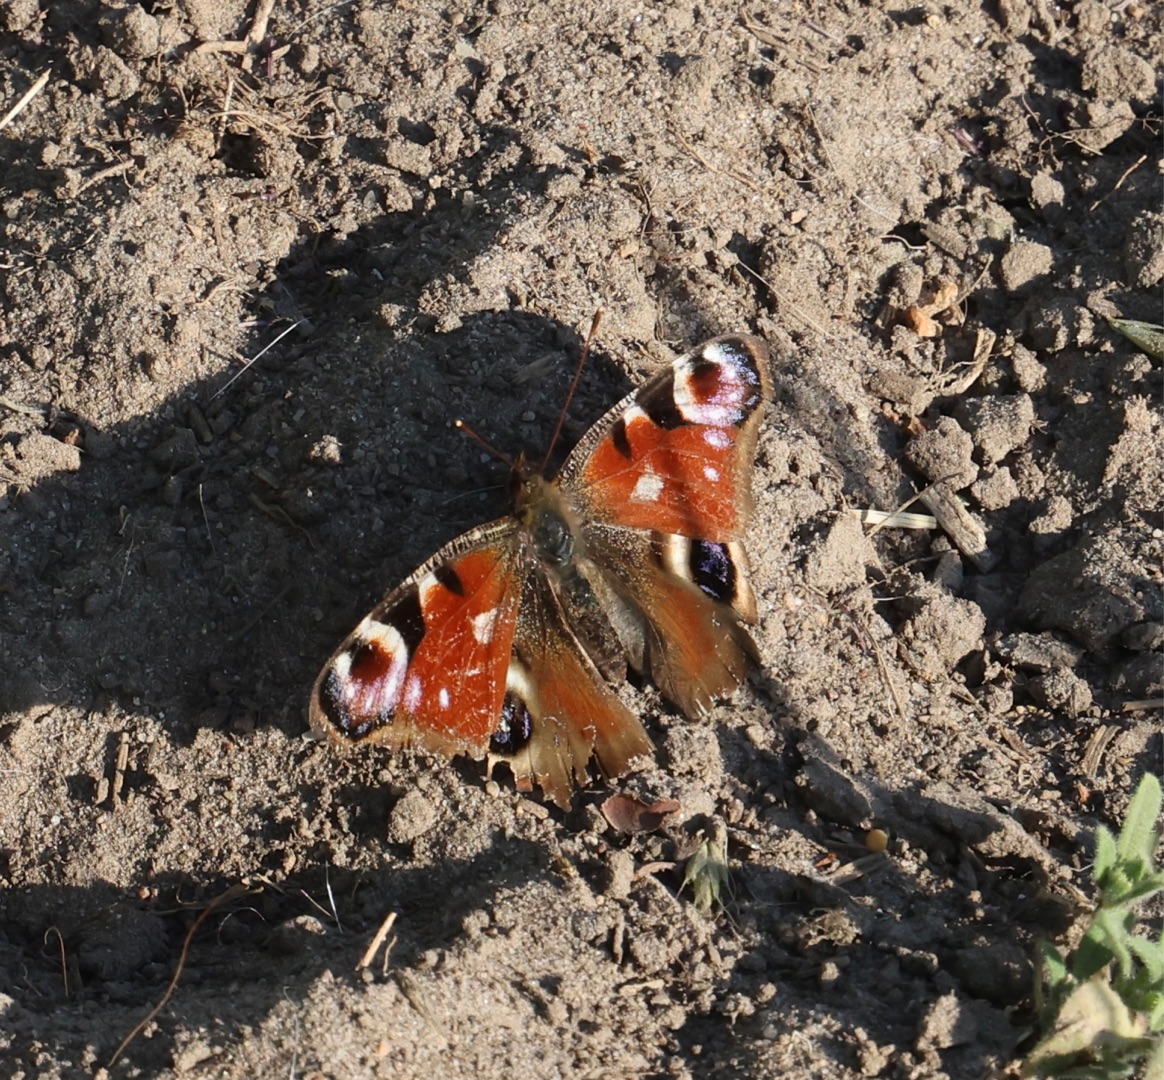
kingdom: Animalia
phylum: Arthropoda
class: Insecta
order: Lepidoptera
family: Nymphalidae
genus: Aglais
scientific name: Aglais io
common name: Dagpåfugleøje
